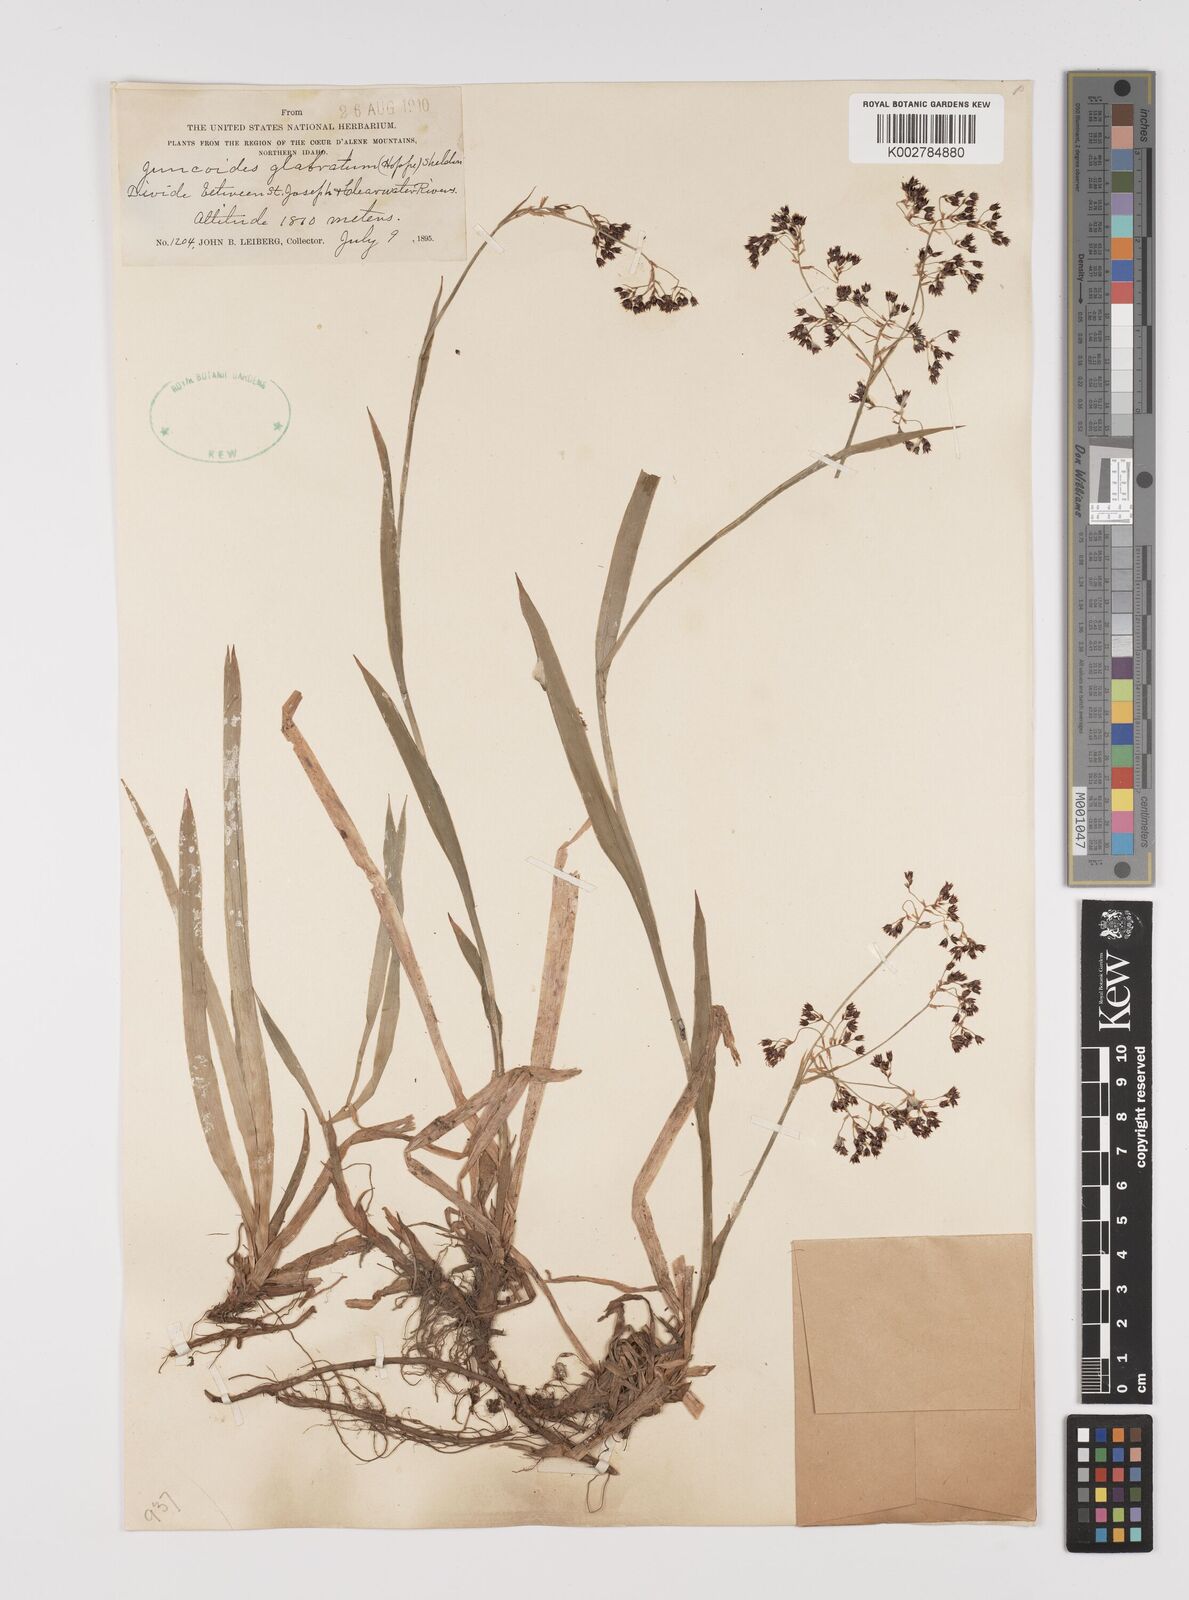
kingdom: Plantae
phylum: Tracheophyta
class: Liliopsida
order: Poales
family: Juncaceae
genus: Luzula
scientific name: Luzula glabrata
